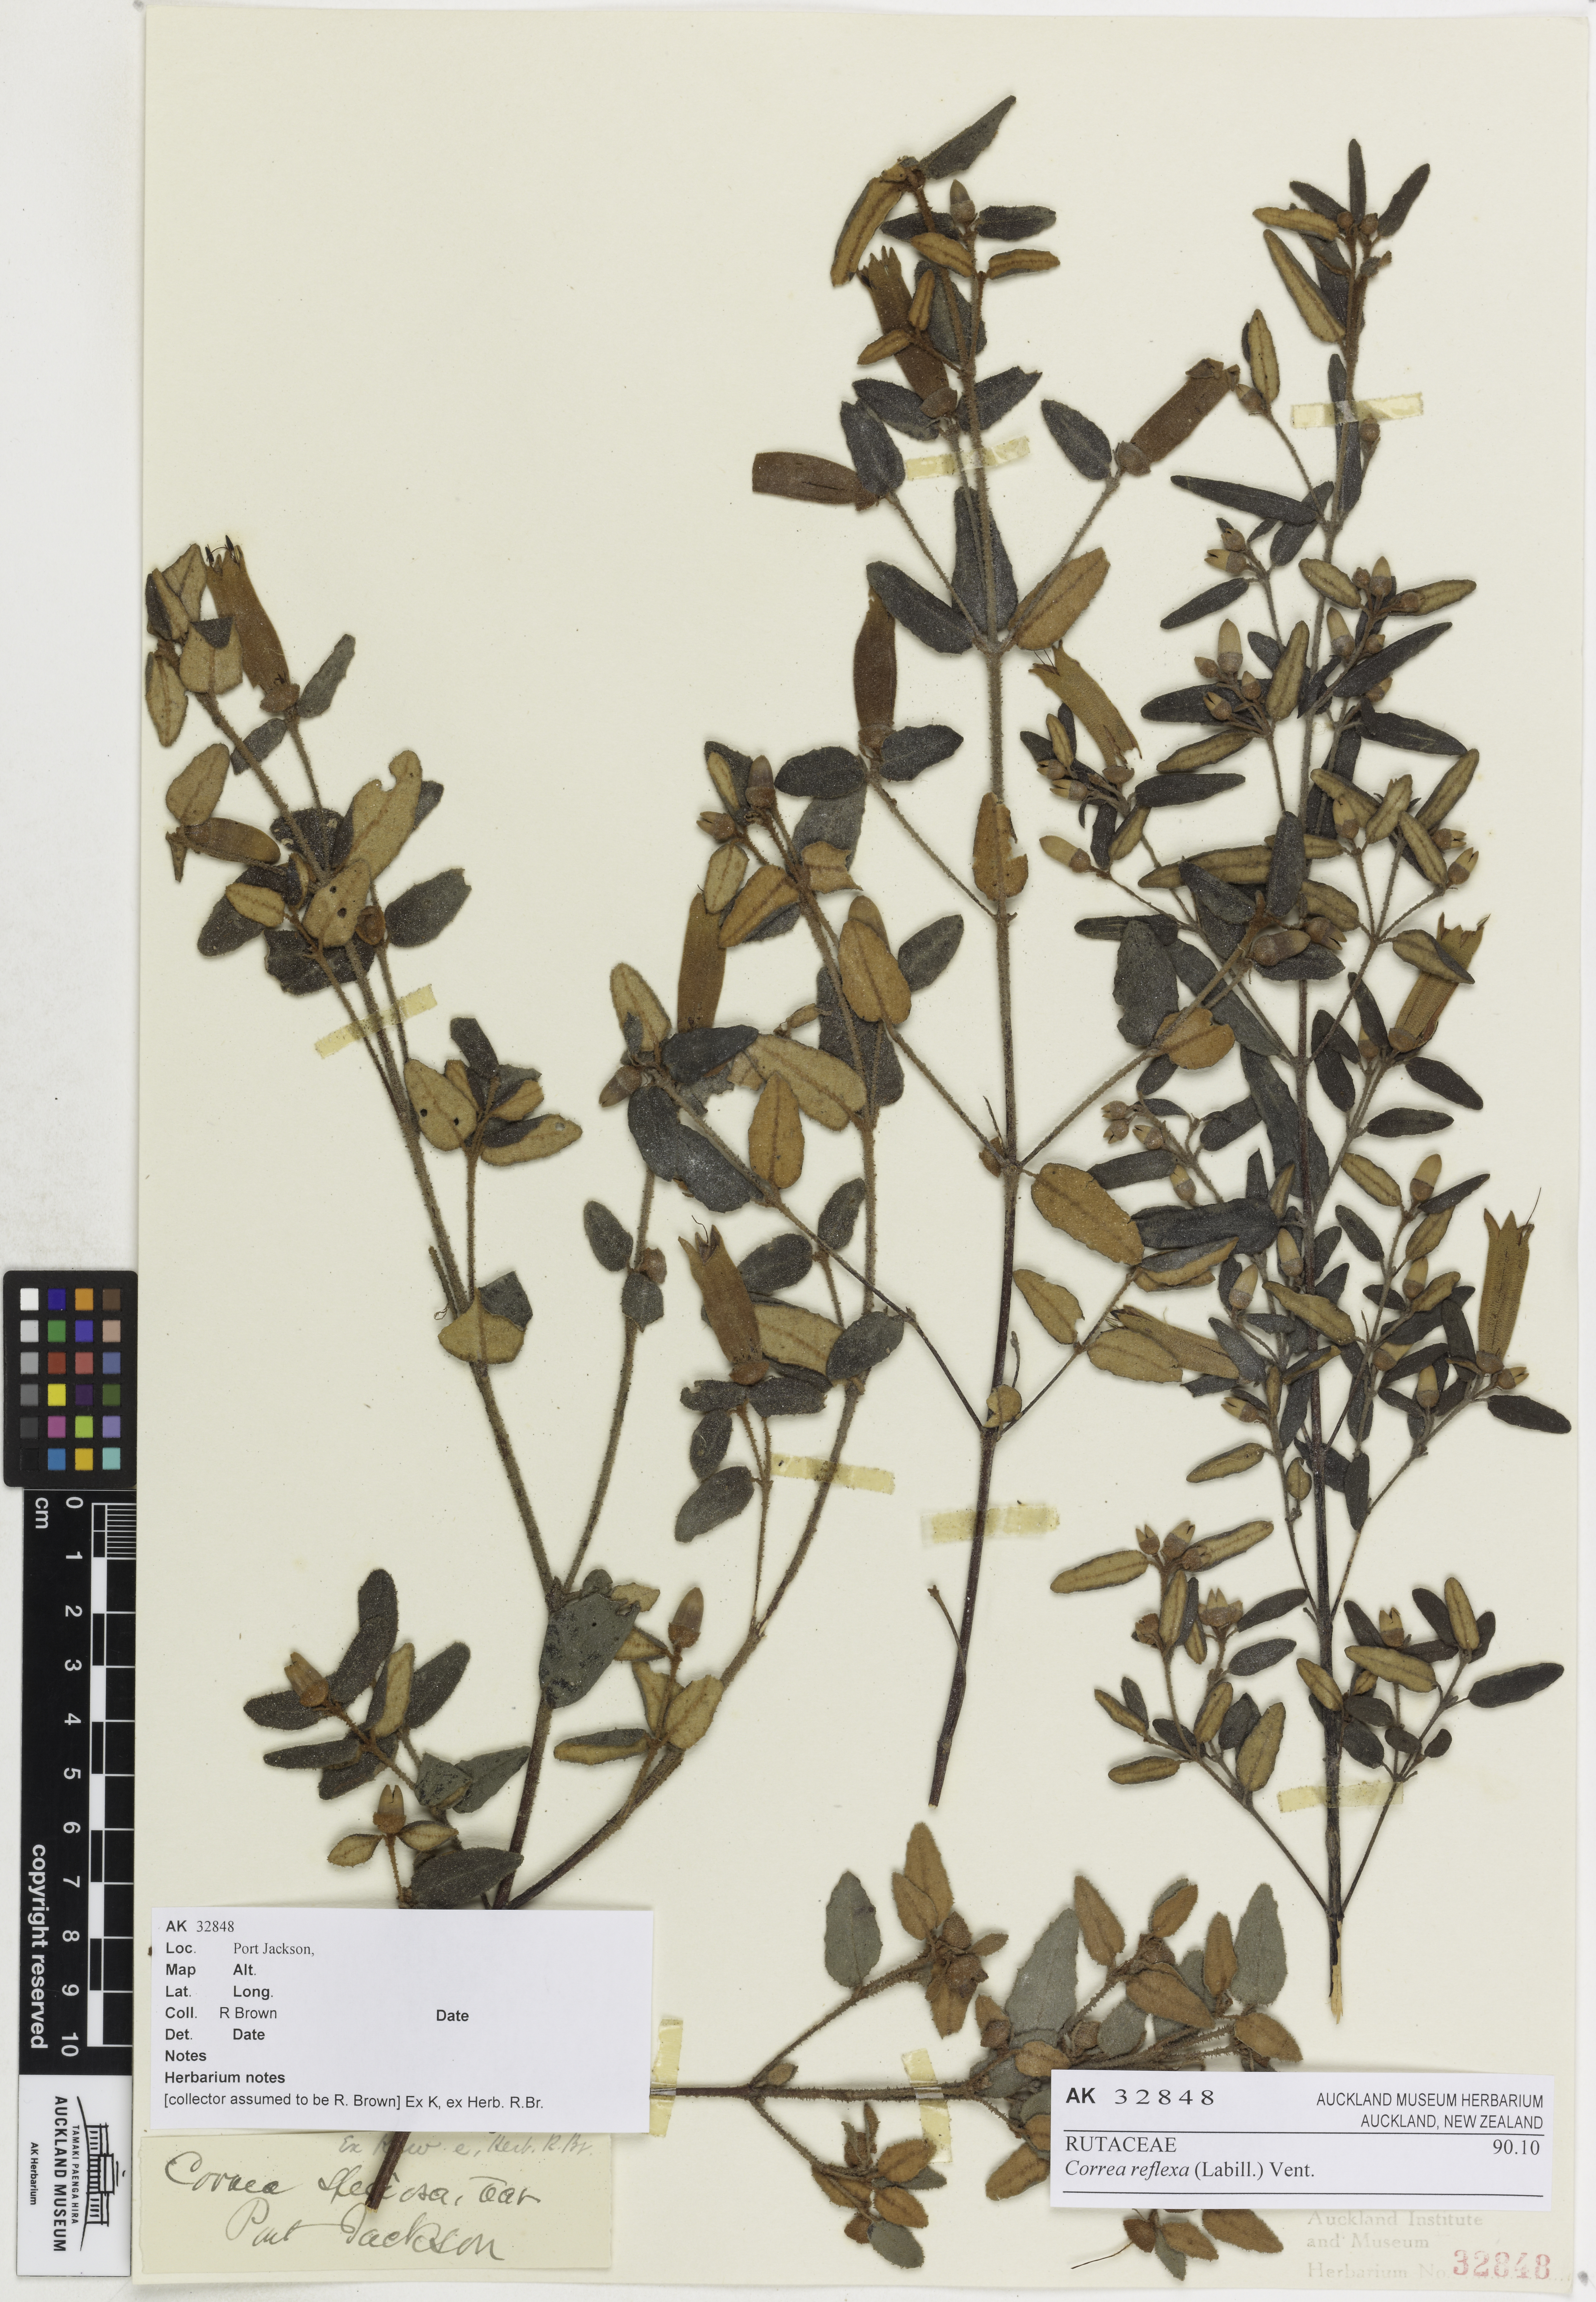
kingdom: Plantae
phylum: Tracheophyta
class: Magnoliopsida
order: Sapindales
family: Rutaceae
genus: Correa
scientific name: Correa reflexa
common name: Common correa
